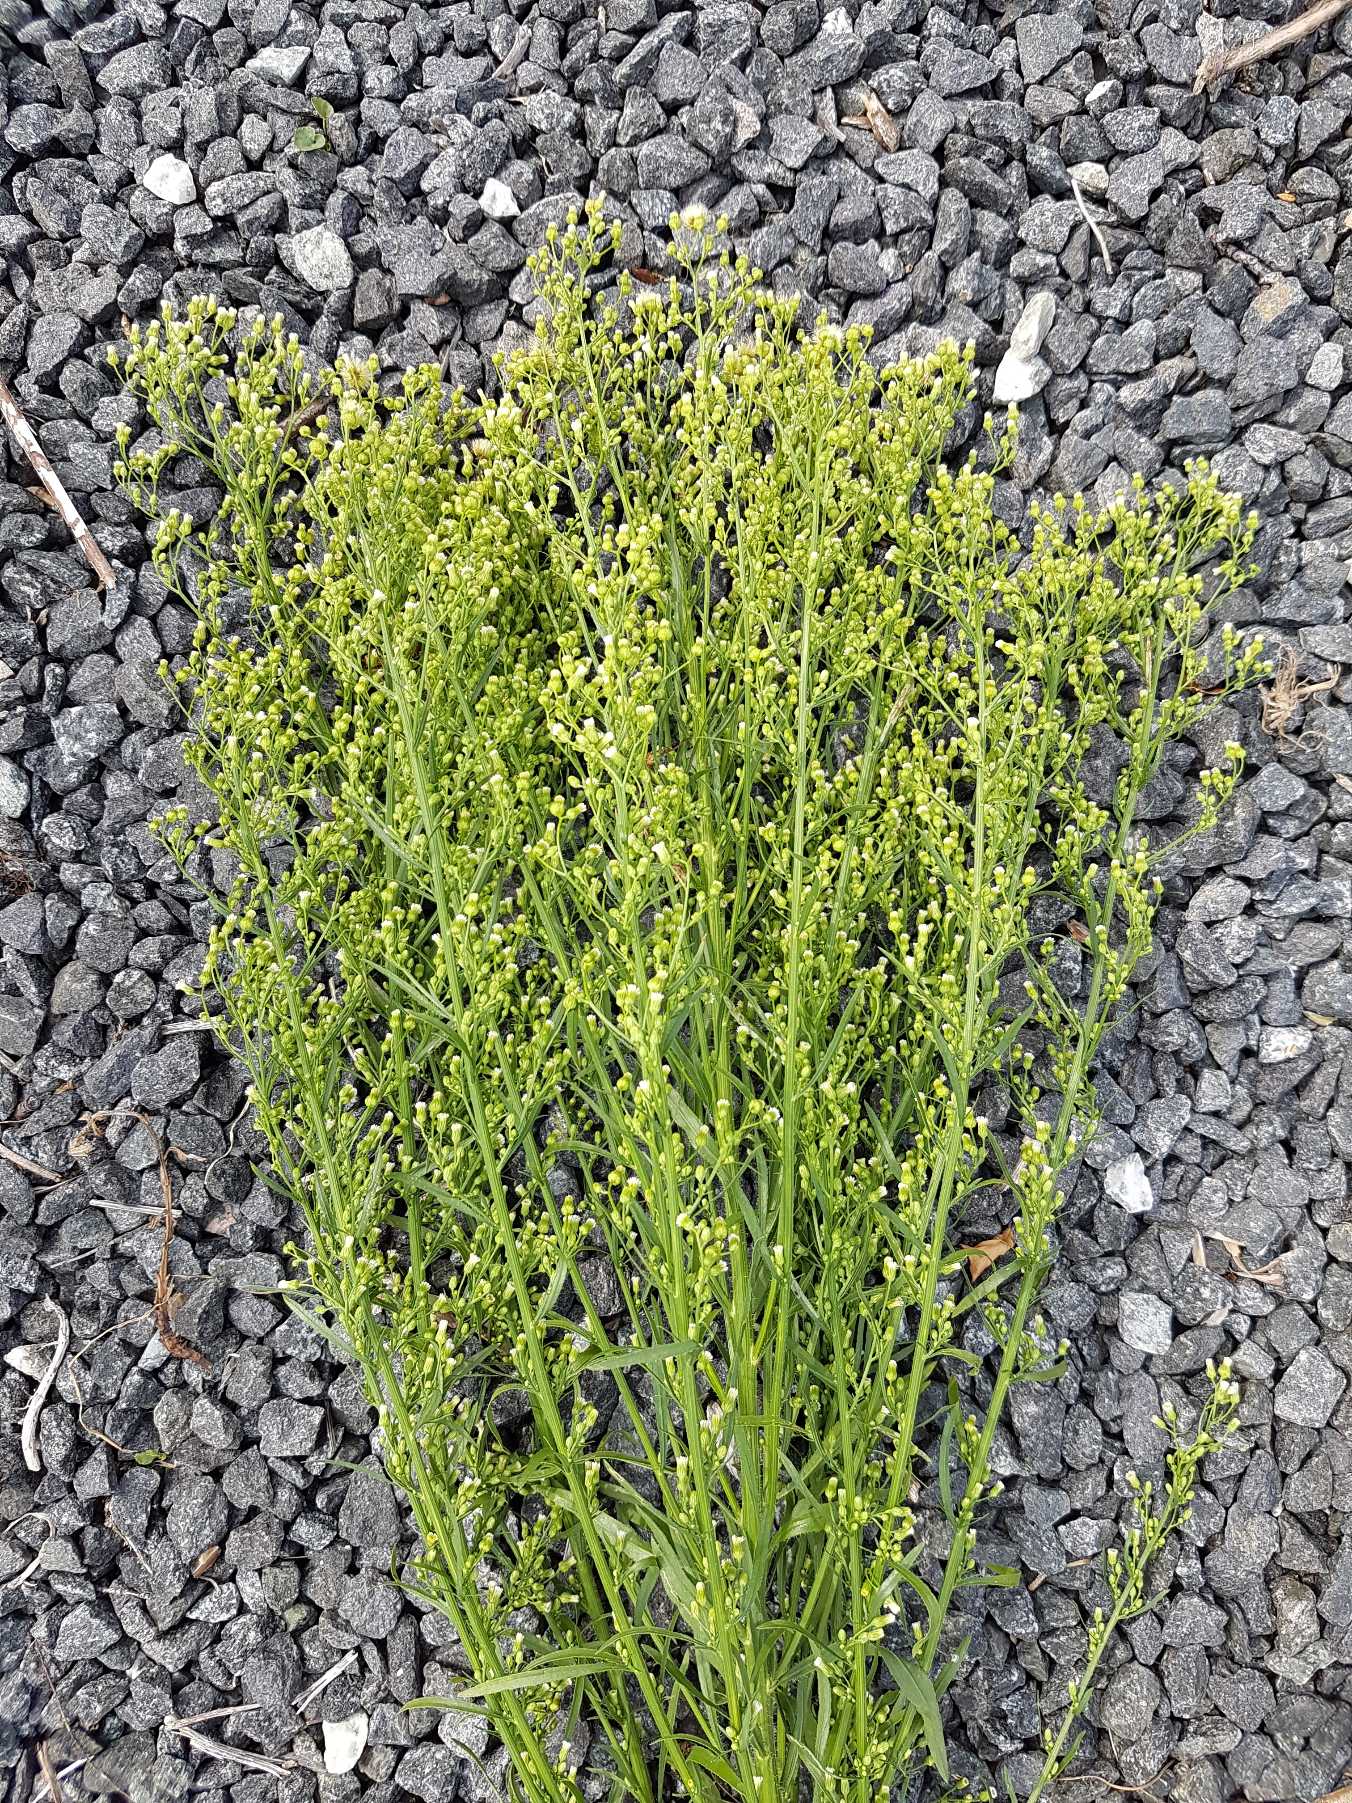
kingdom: Plantae
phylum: Tracheophyta
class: Magnoliopsida
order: Asterales
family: Asteraceae
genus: Erigeron
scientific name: Erigeron canadensis
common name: Kanadisk bakkestjerne
